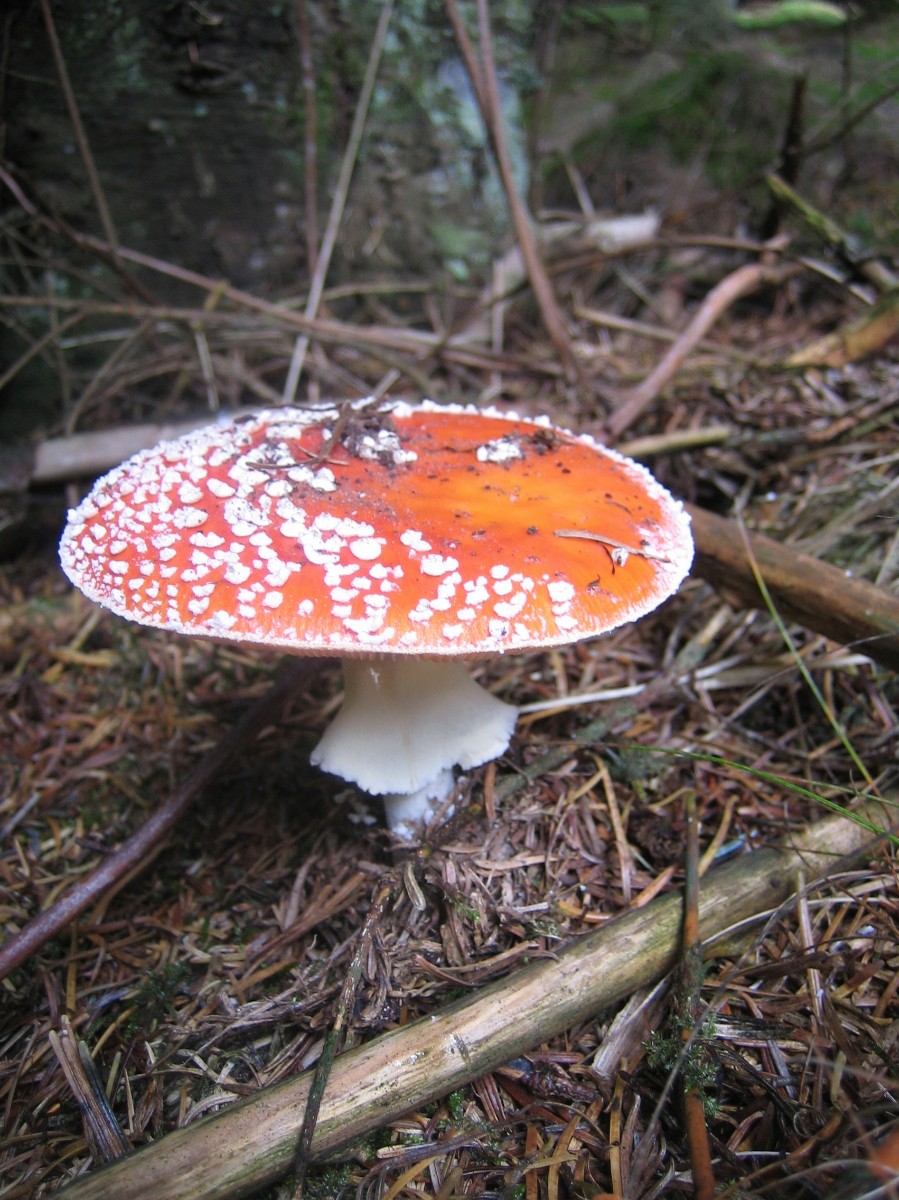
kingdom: Fungi
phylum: Basidiomycota
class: Agaricomycetes
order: Agaricales
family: Amanitaceae
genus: Amanita
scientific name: Amanita muscaria
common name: rød fluesvamp
